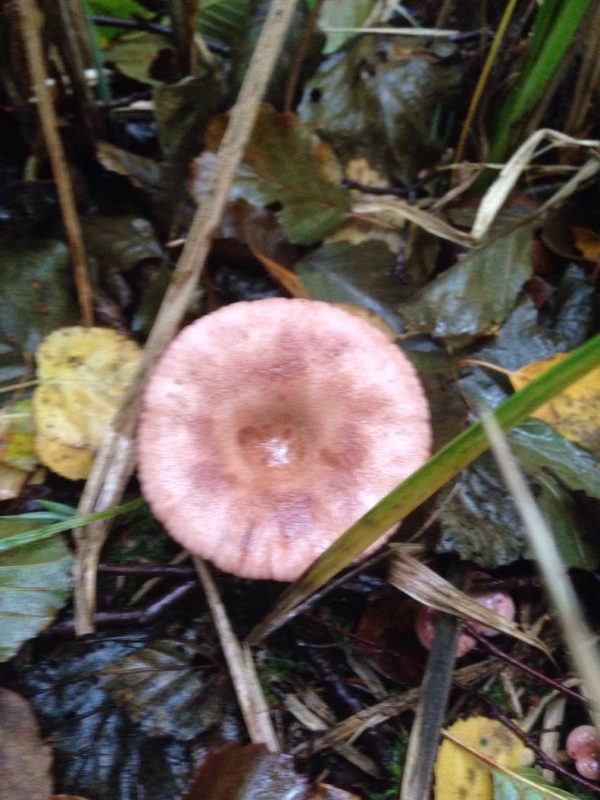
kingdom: Fungi
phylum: Basidiomycota
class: Agaricomycetes
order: Russulales
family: Russulaceae
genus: Lactarius
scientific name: Lactarius lilacinus
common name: lilla mælkehat
